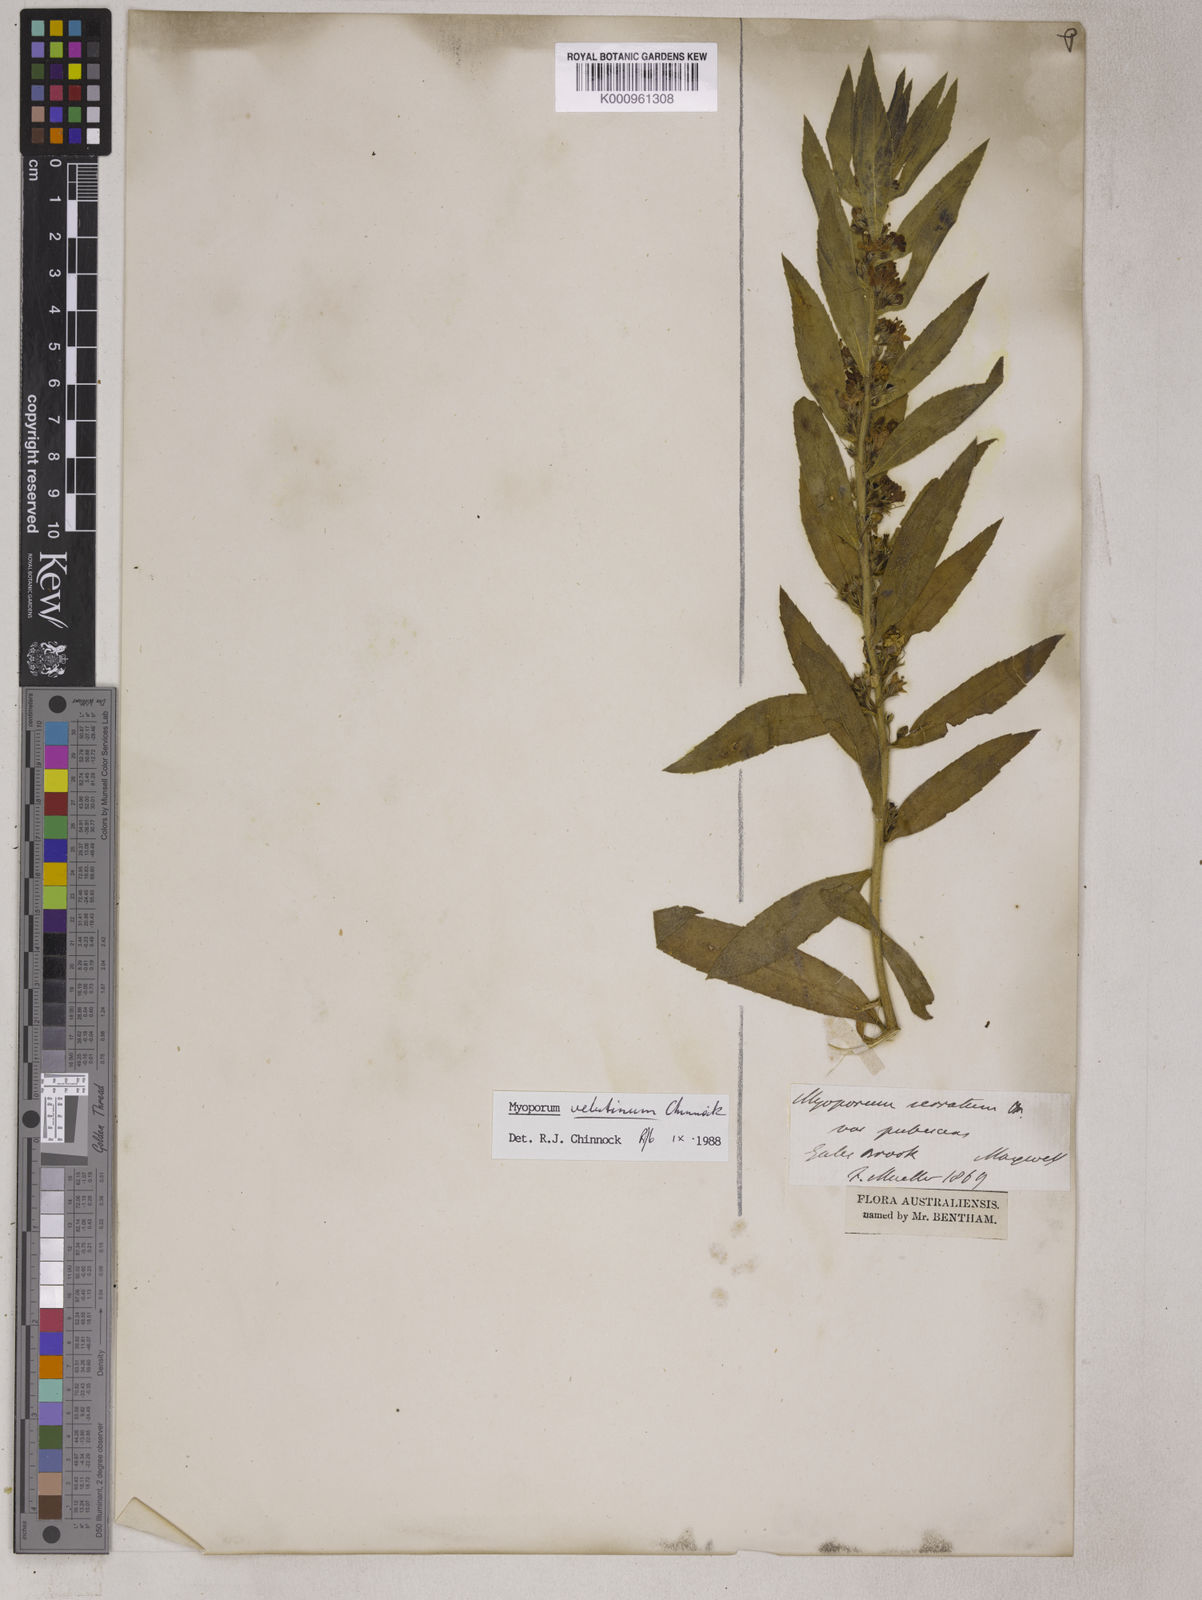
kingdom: Plantae
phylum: Tracheophyta
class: Magnoliopsida
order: Lamiales
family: Scrophulariaceae
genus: Myoporum
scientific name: Myoporum insulare
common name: Common boobialla
